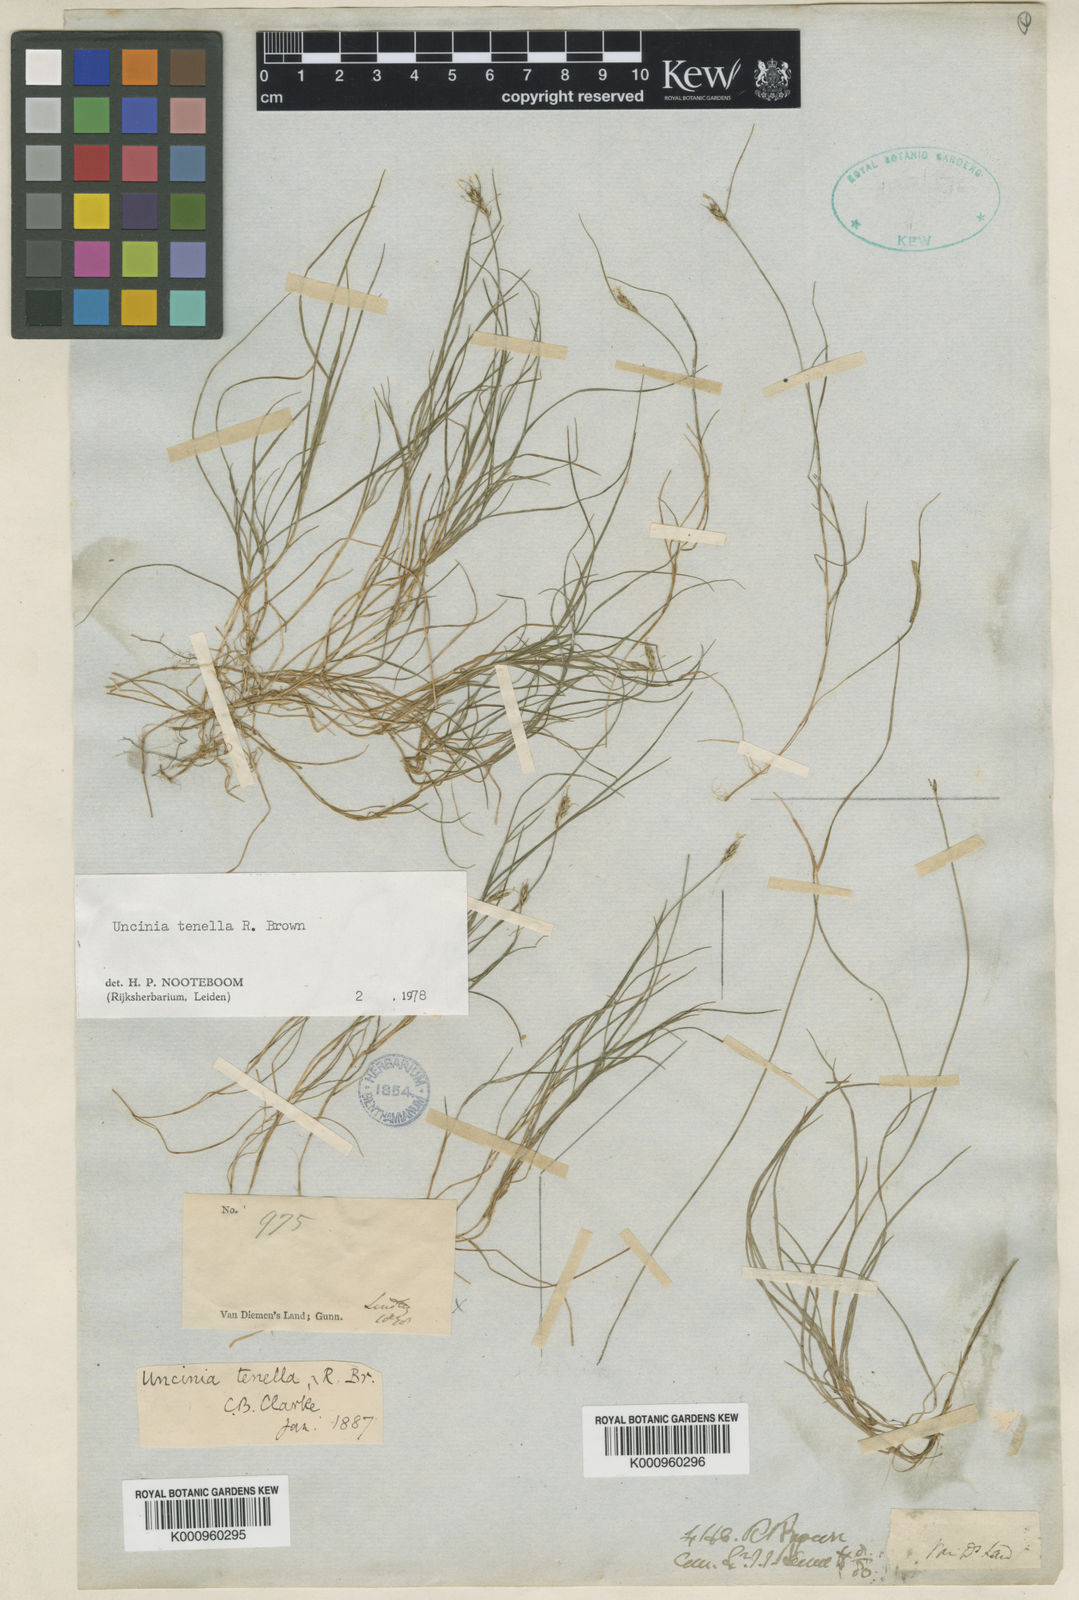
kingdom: Plantae
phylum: Tracheophyta
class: Liliopsida
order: Poales
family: Cyperaceae
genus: Carex
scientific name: Carex austrotenella
